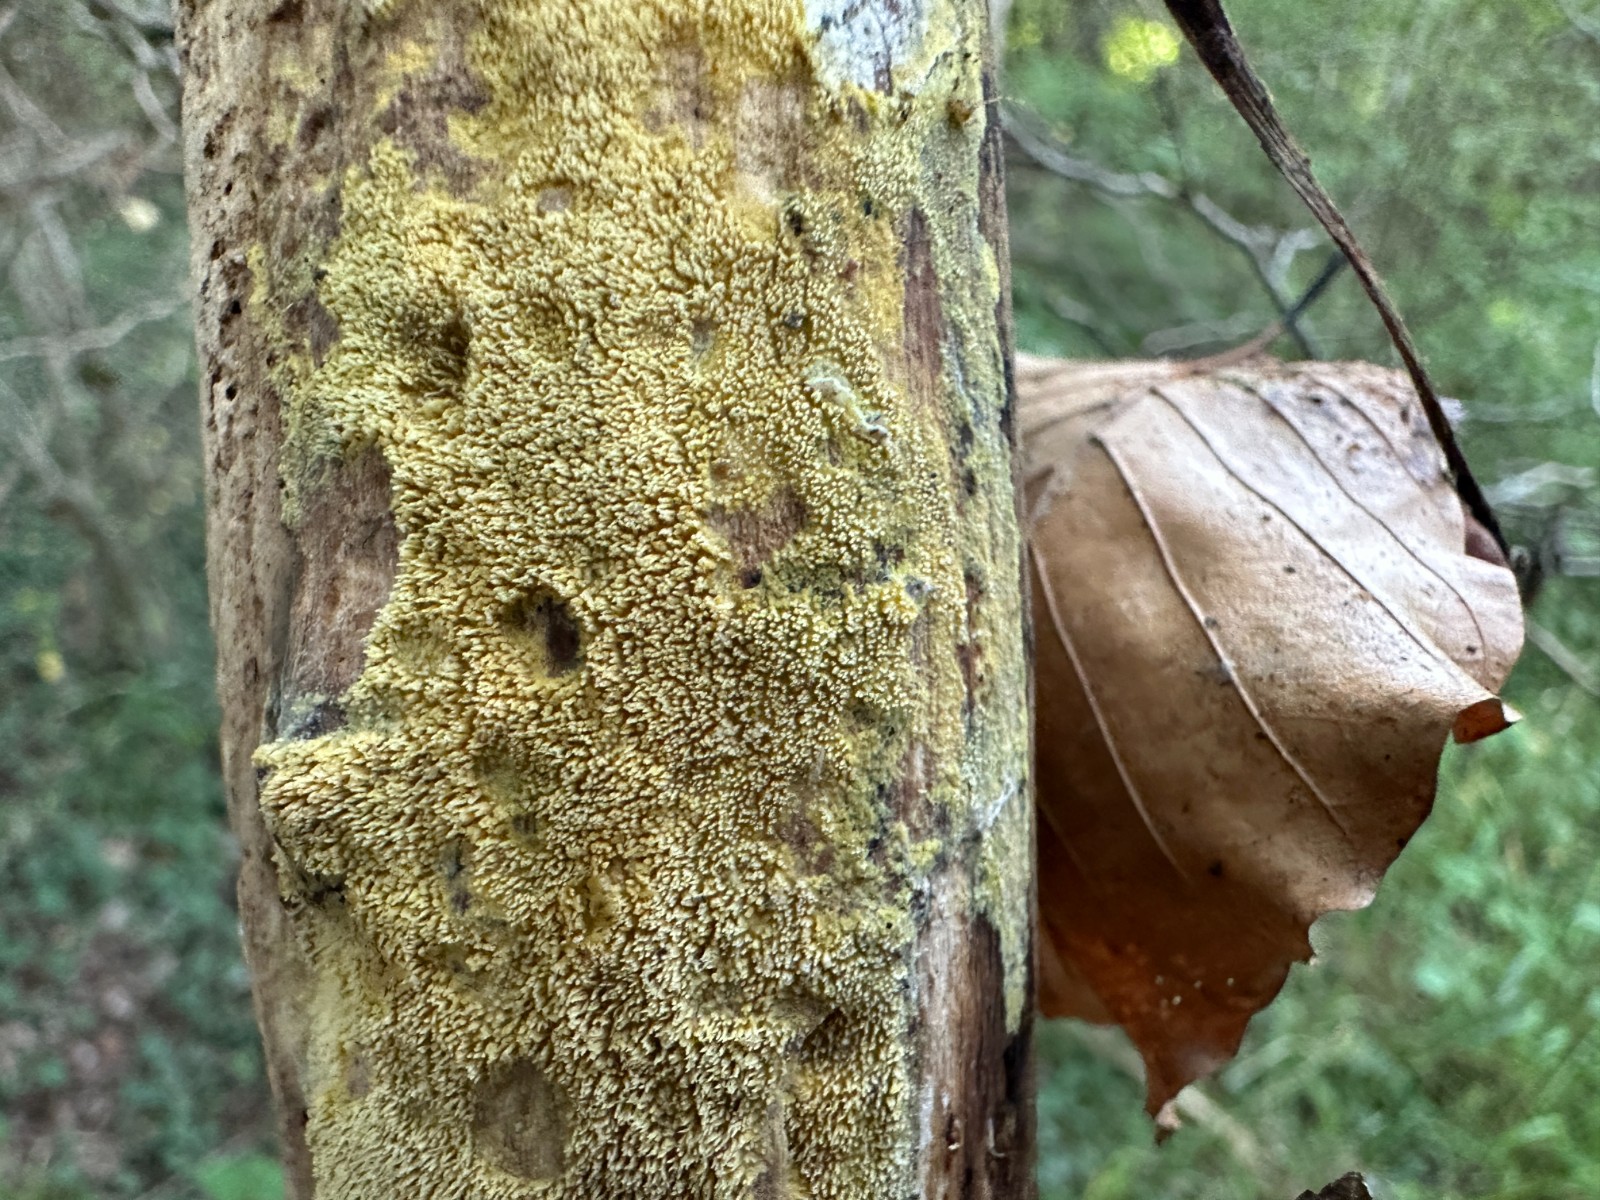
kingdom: Fungi
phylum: Basidiomycota
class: Agaricomycetes
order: Polyporales
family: Meruliaceae
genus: Mycoacia
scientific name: Mycoacia uda
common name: citrongul vokspig
